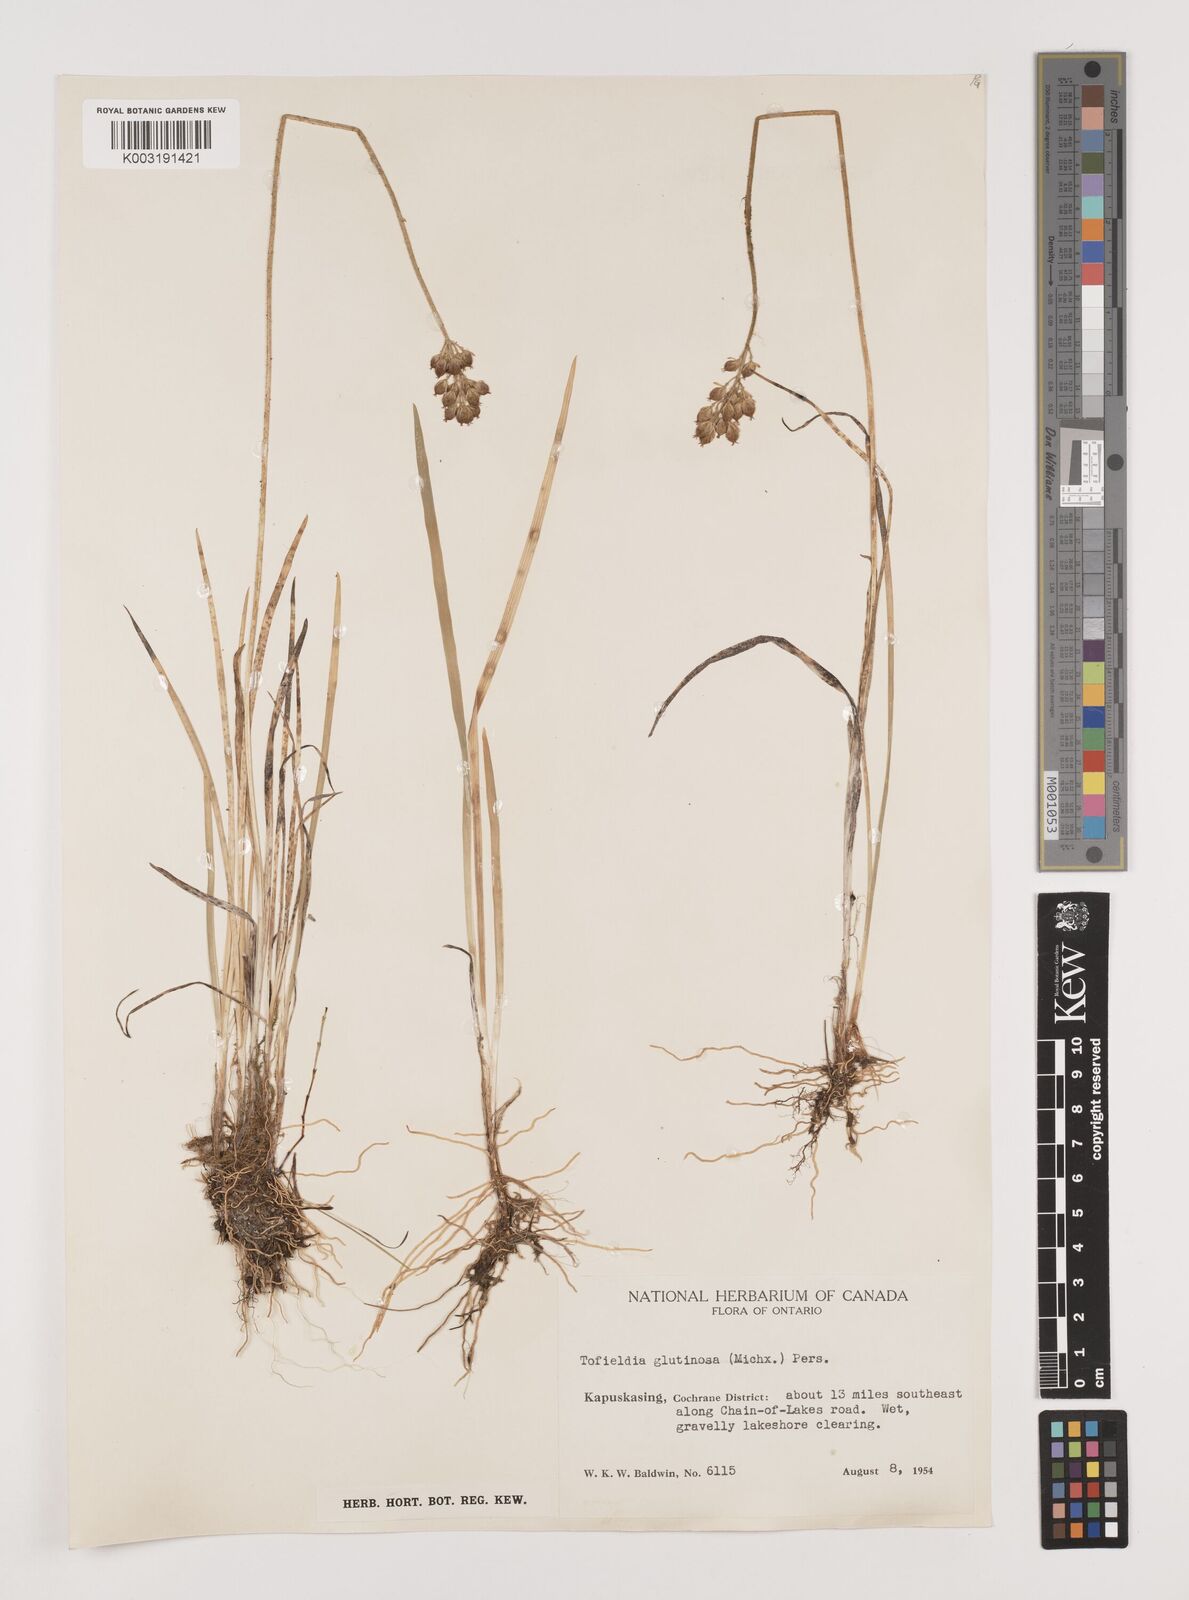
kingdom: Plantae
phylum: Tracheophyta
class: Liliopsida
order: Alismatales
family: Tofieldiaceae
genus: Triantha
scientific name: Triantha glutinosa
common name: Glutinous tofieldia
